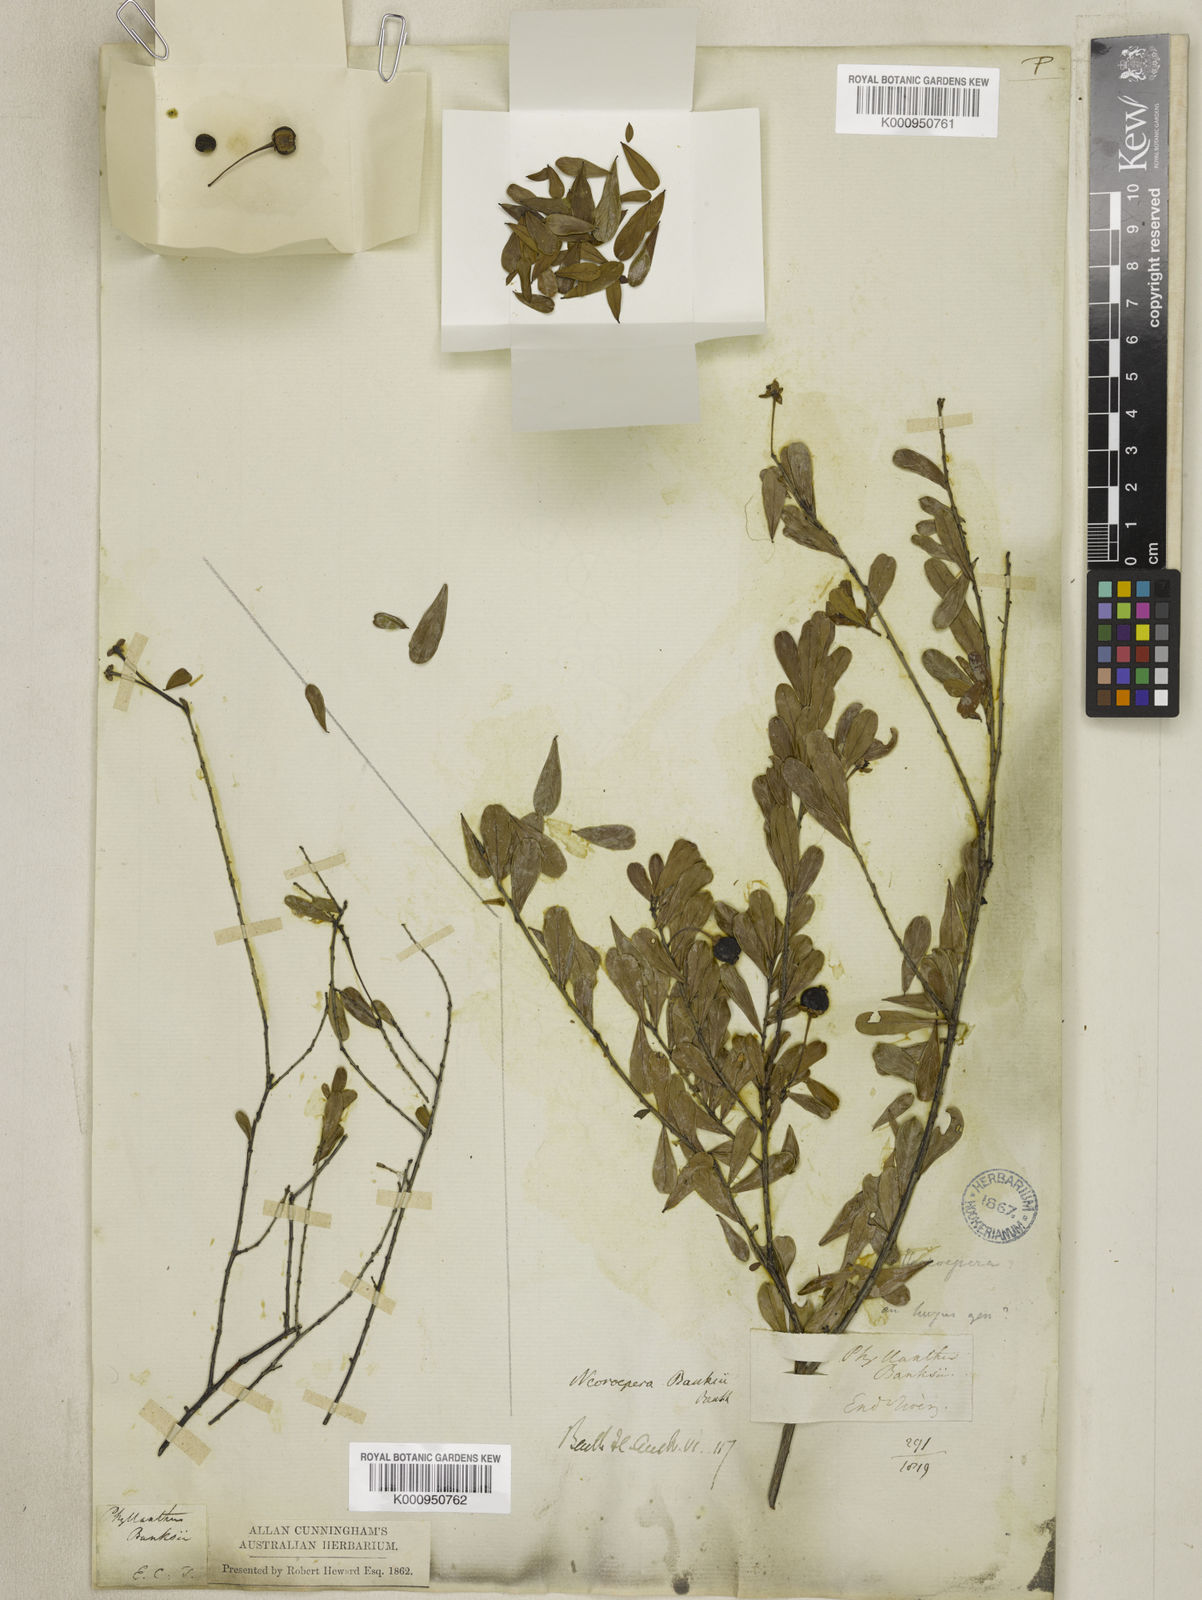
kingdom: Plantae
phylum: Tracheophyta
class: Magnoliopsida
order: Malpighiales
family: Picrodendraceae
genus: Neoroepera
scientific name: Neoroepera banksii
